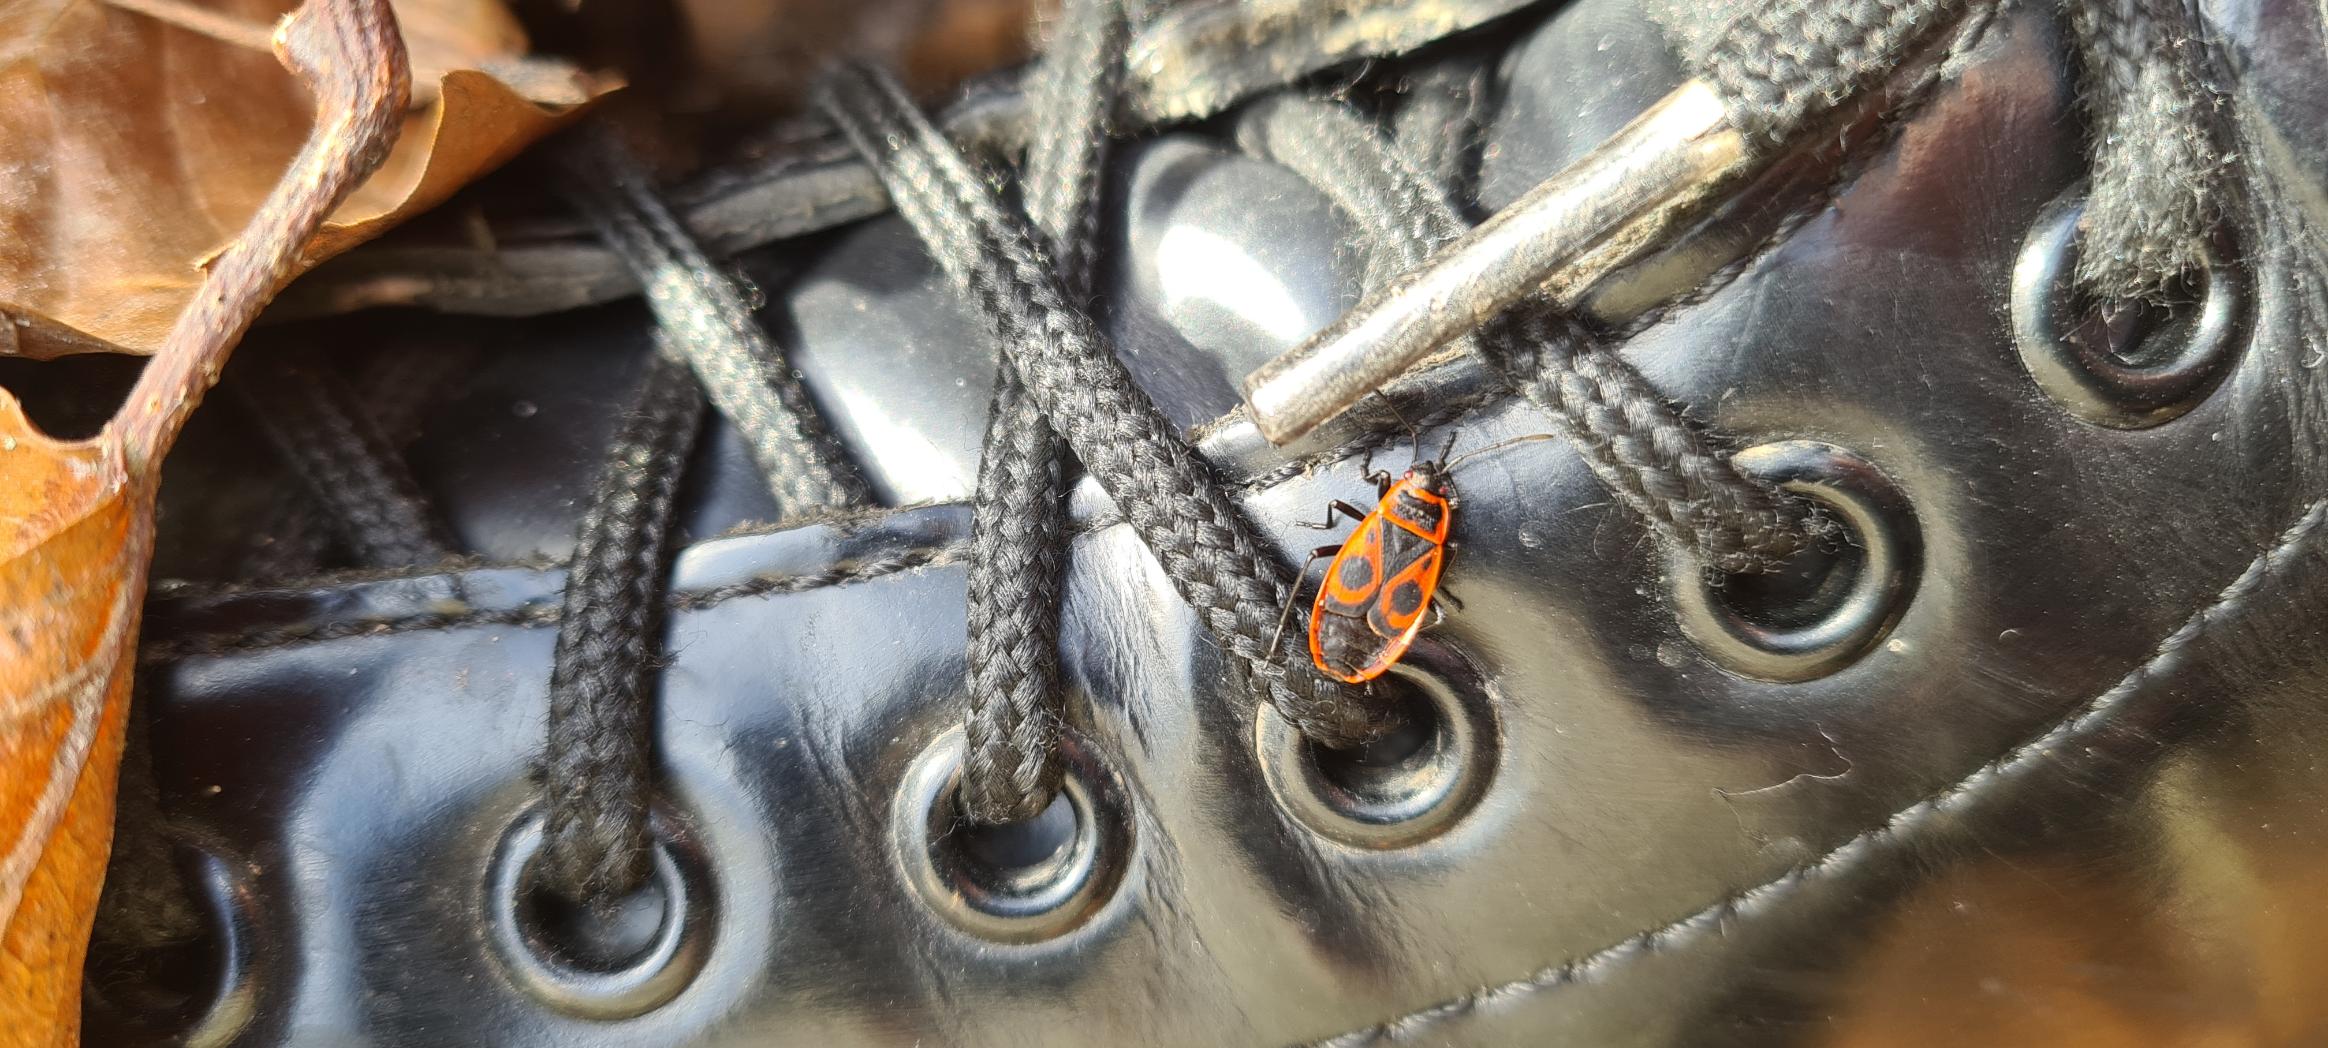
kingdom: Animalia
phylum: Arthropoda
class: Insecta
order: Hemiptera
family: Pyrrhocoridae
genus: Pyrrhocoris
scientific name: Pyrrhocoris apterus
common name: Ildtæge
